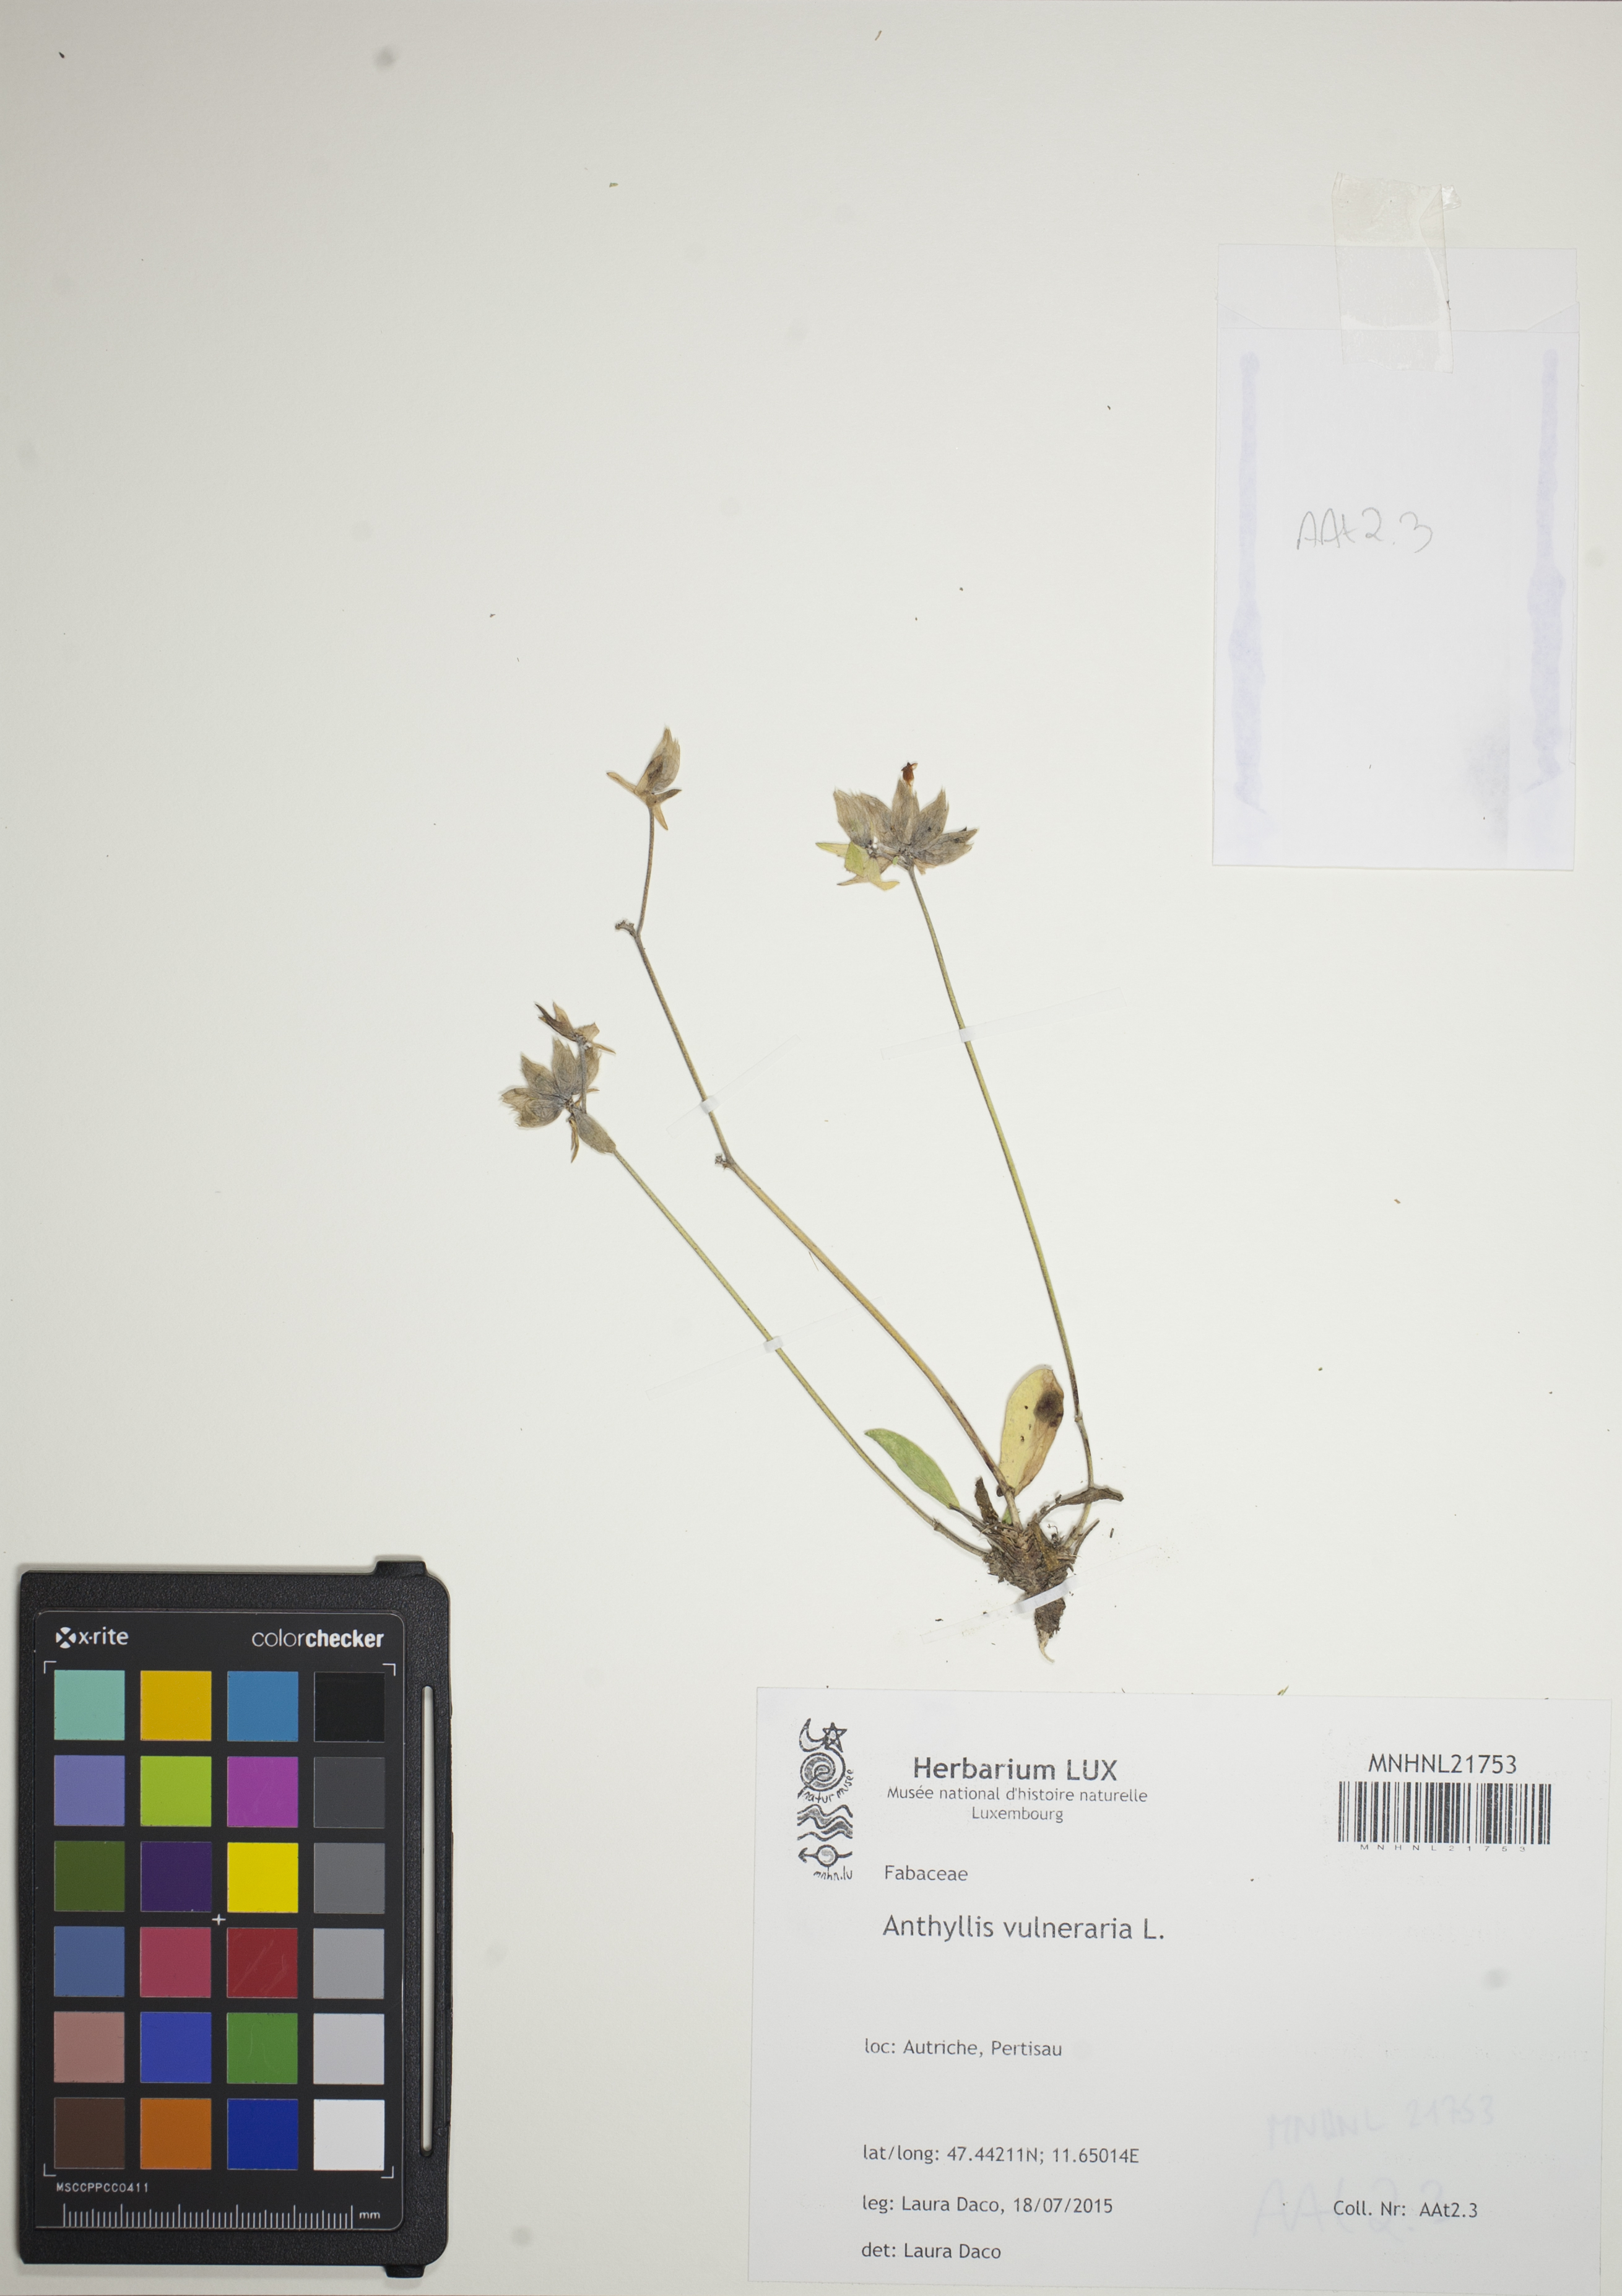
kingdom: Plantae
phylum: Tracheophyta
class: Magnoliopsida
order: Fabales
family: Fabaceae
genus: Anthyllis
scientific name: Anthyllis vulneraria
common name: Kidney vetch
